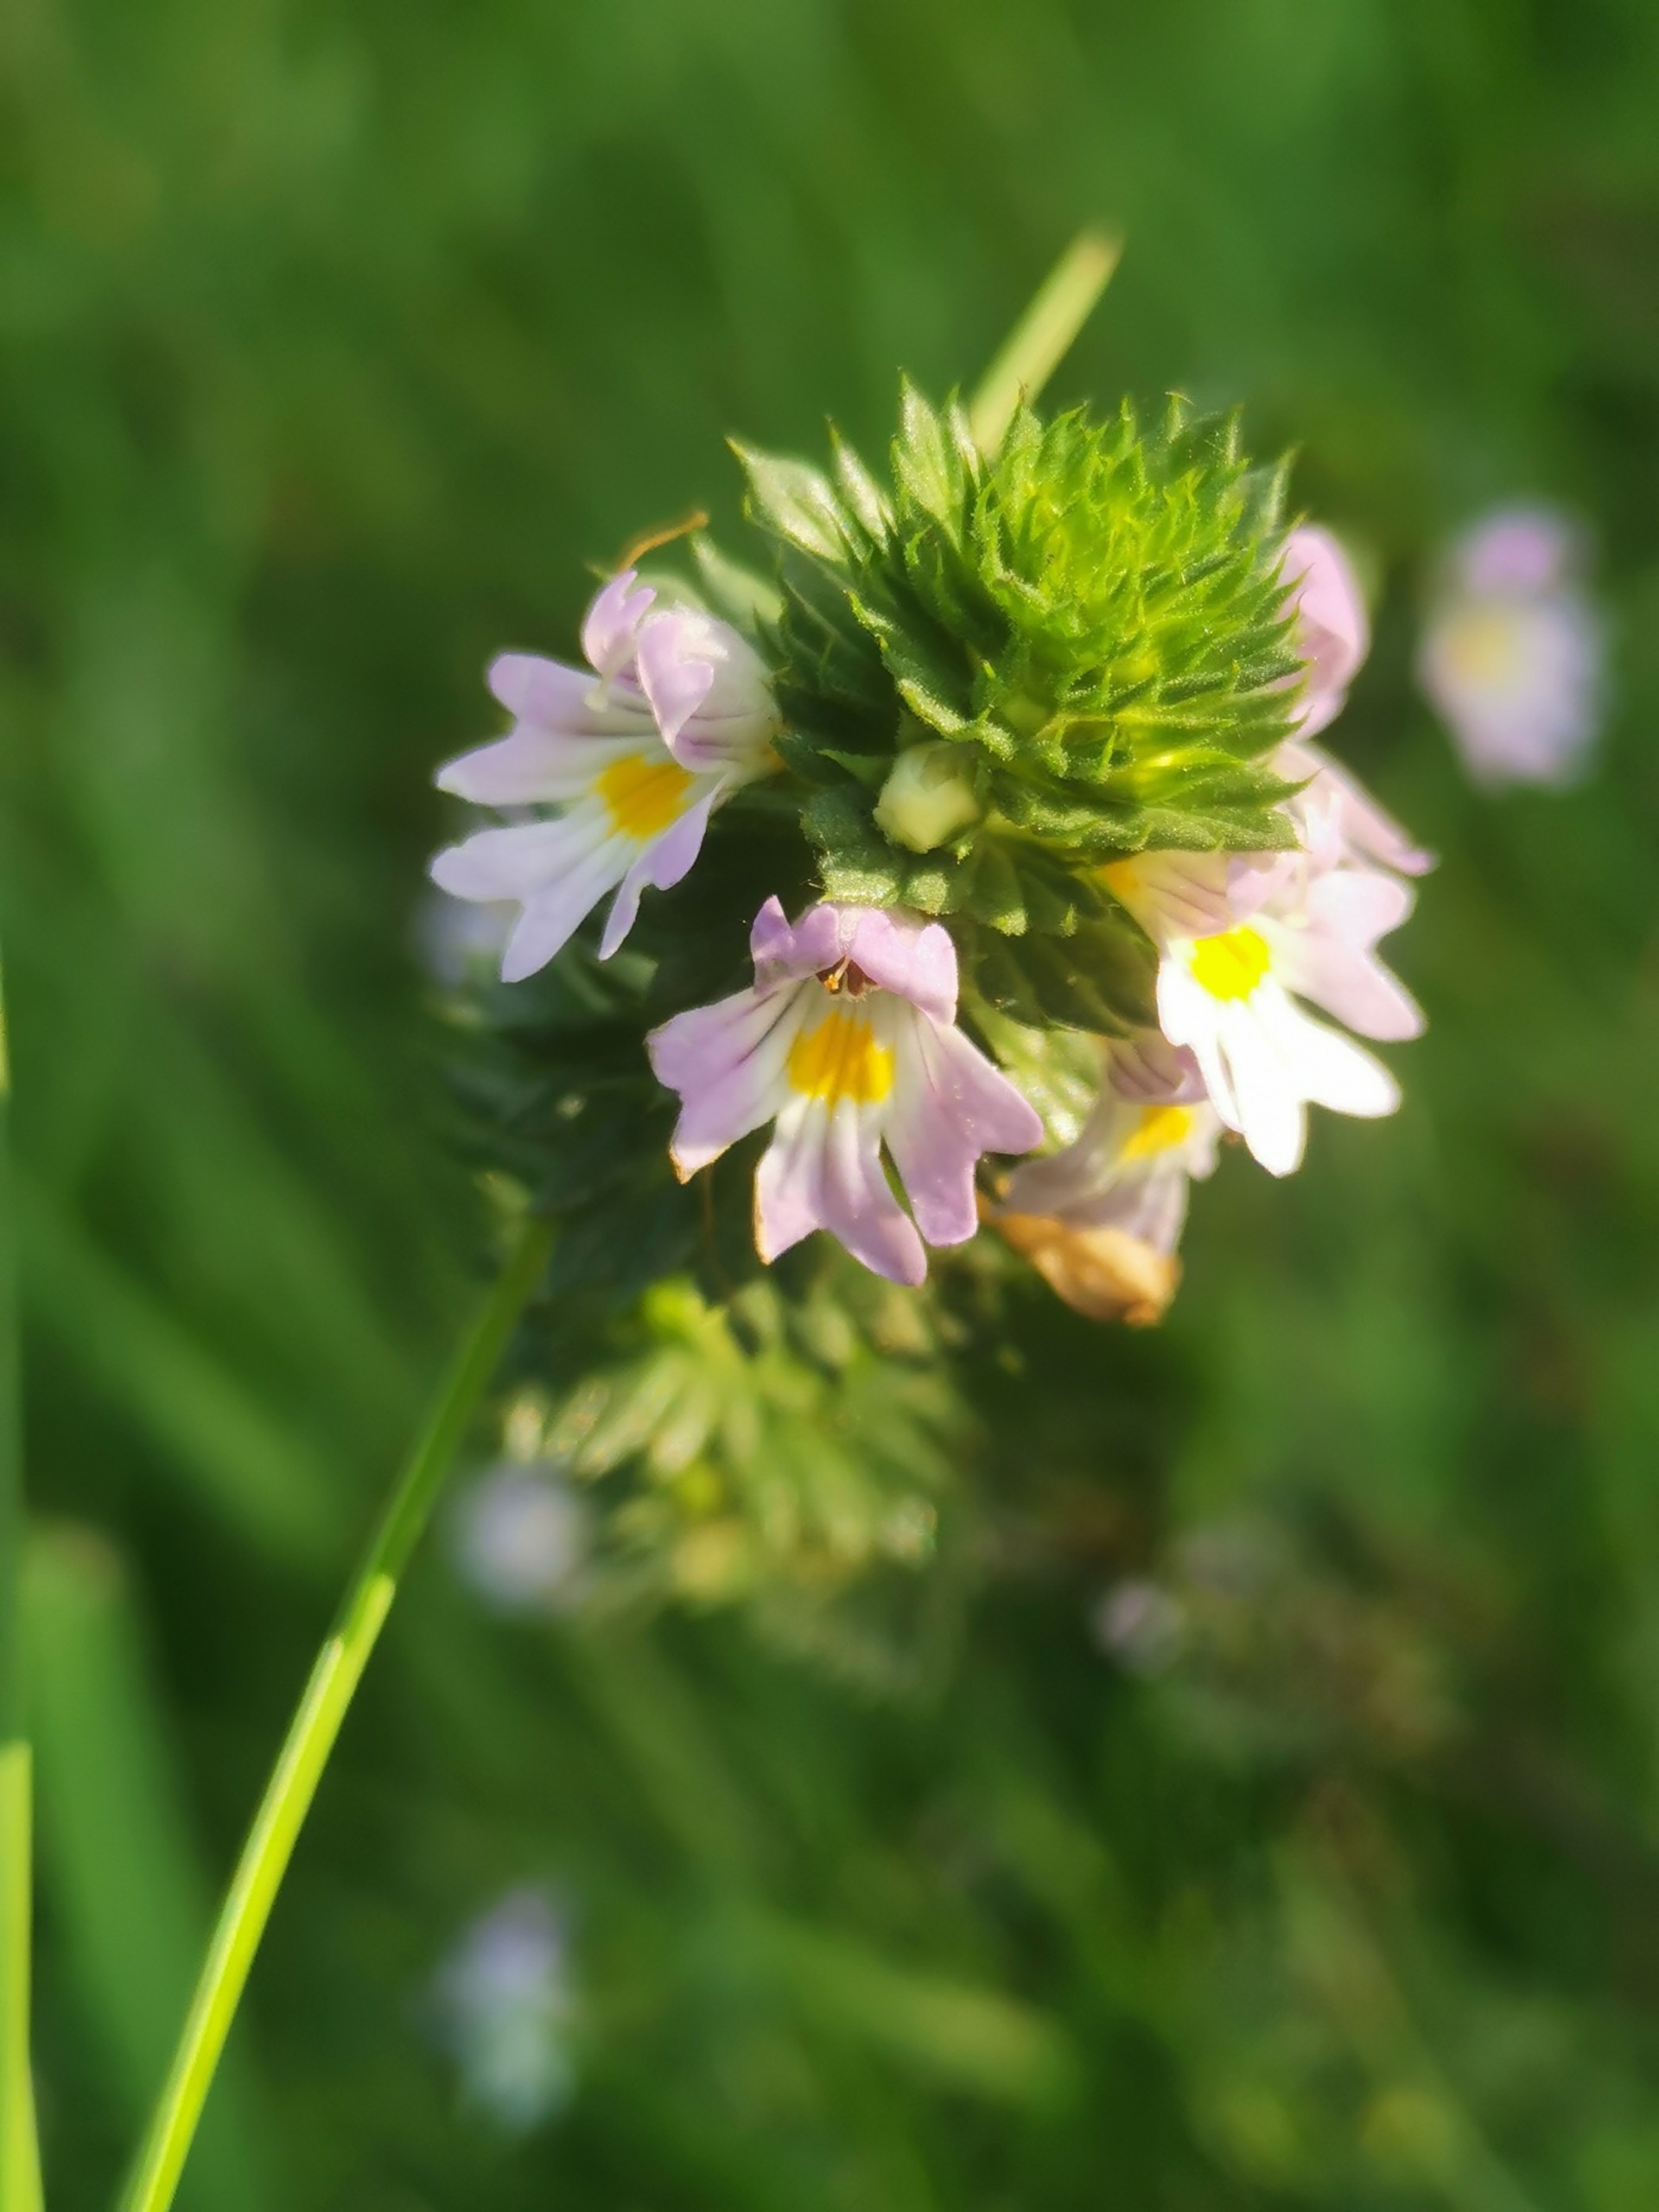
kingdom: Plantae
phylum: Tracheophyta
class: Magnoliopsida
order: Lamiales
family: Orobanchaceae
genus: Euphrasia
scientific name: Euphrasia vernalis
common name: Kirtel-øjentrøst
